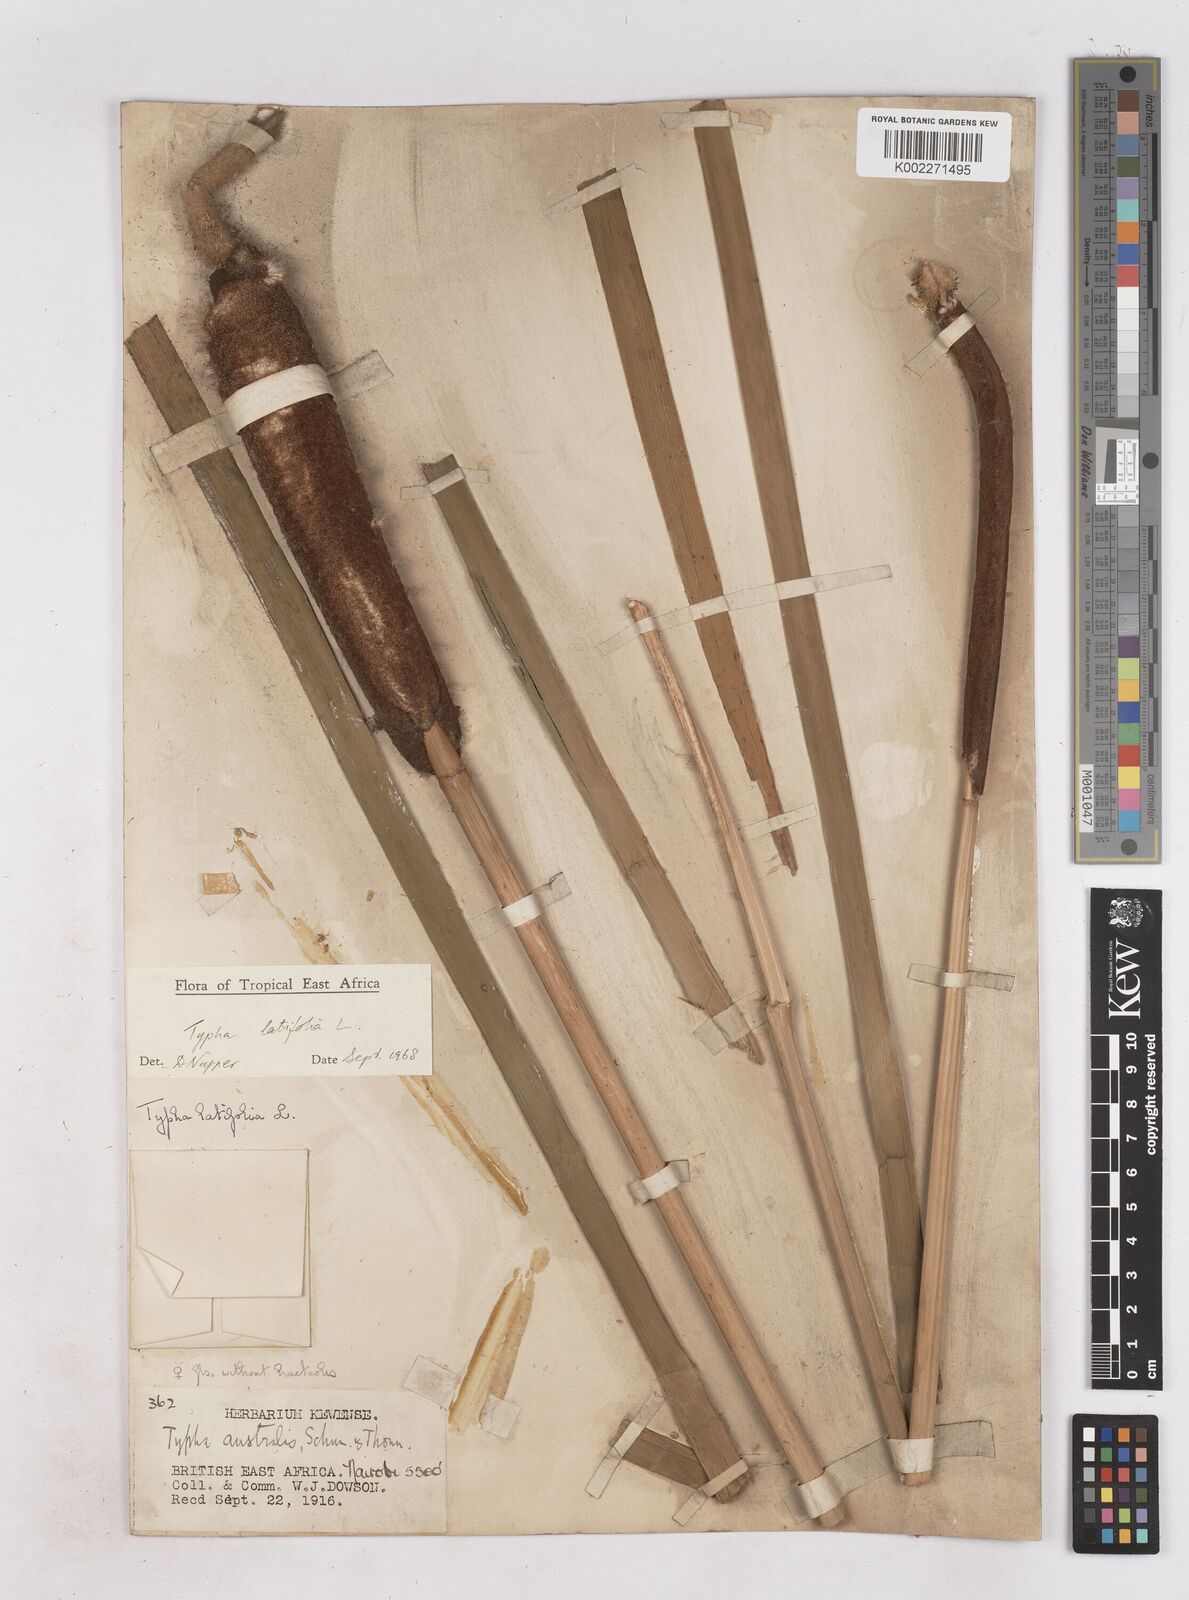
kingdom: Plantae
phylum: Tracheophyta
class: Liliopsida
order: Poales
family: Typhaceae
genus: Typha
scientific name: Typha latifolia
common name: Broadleaf cattail
